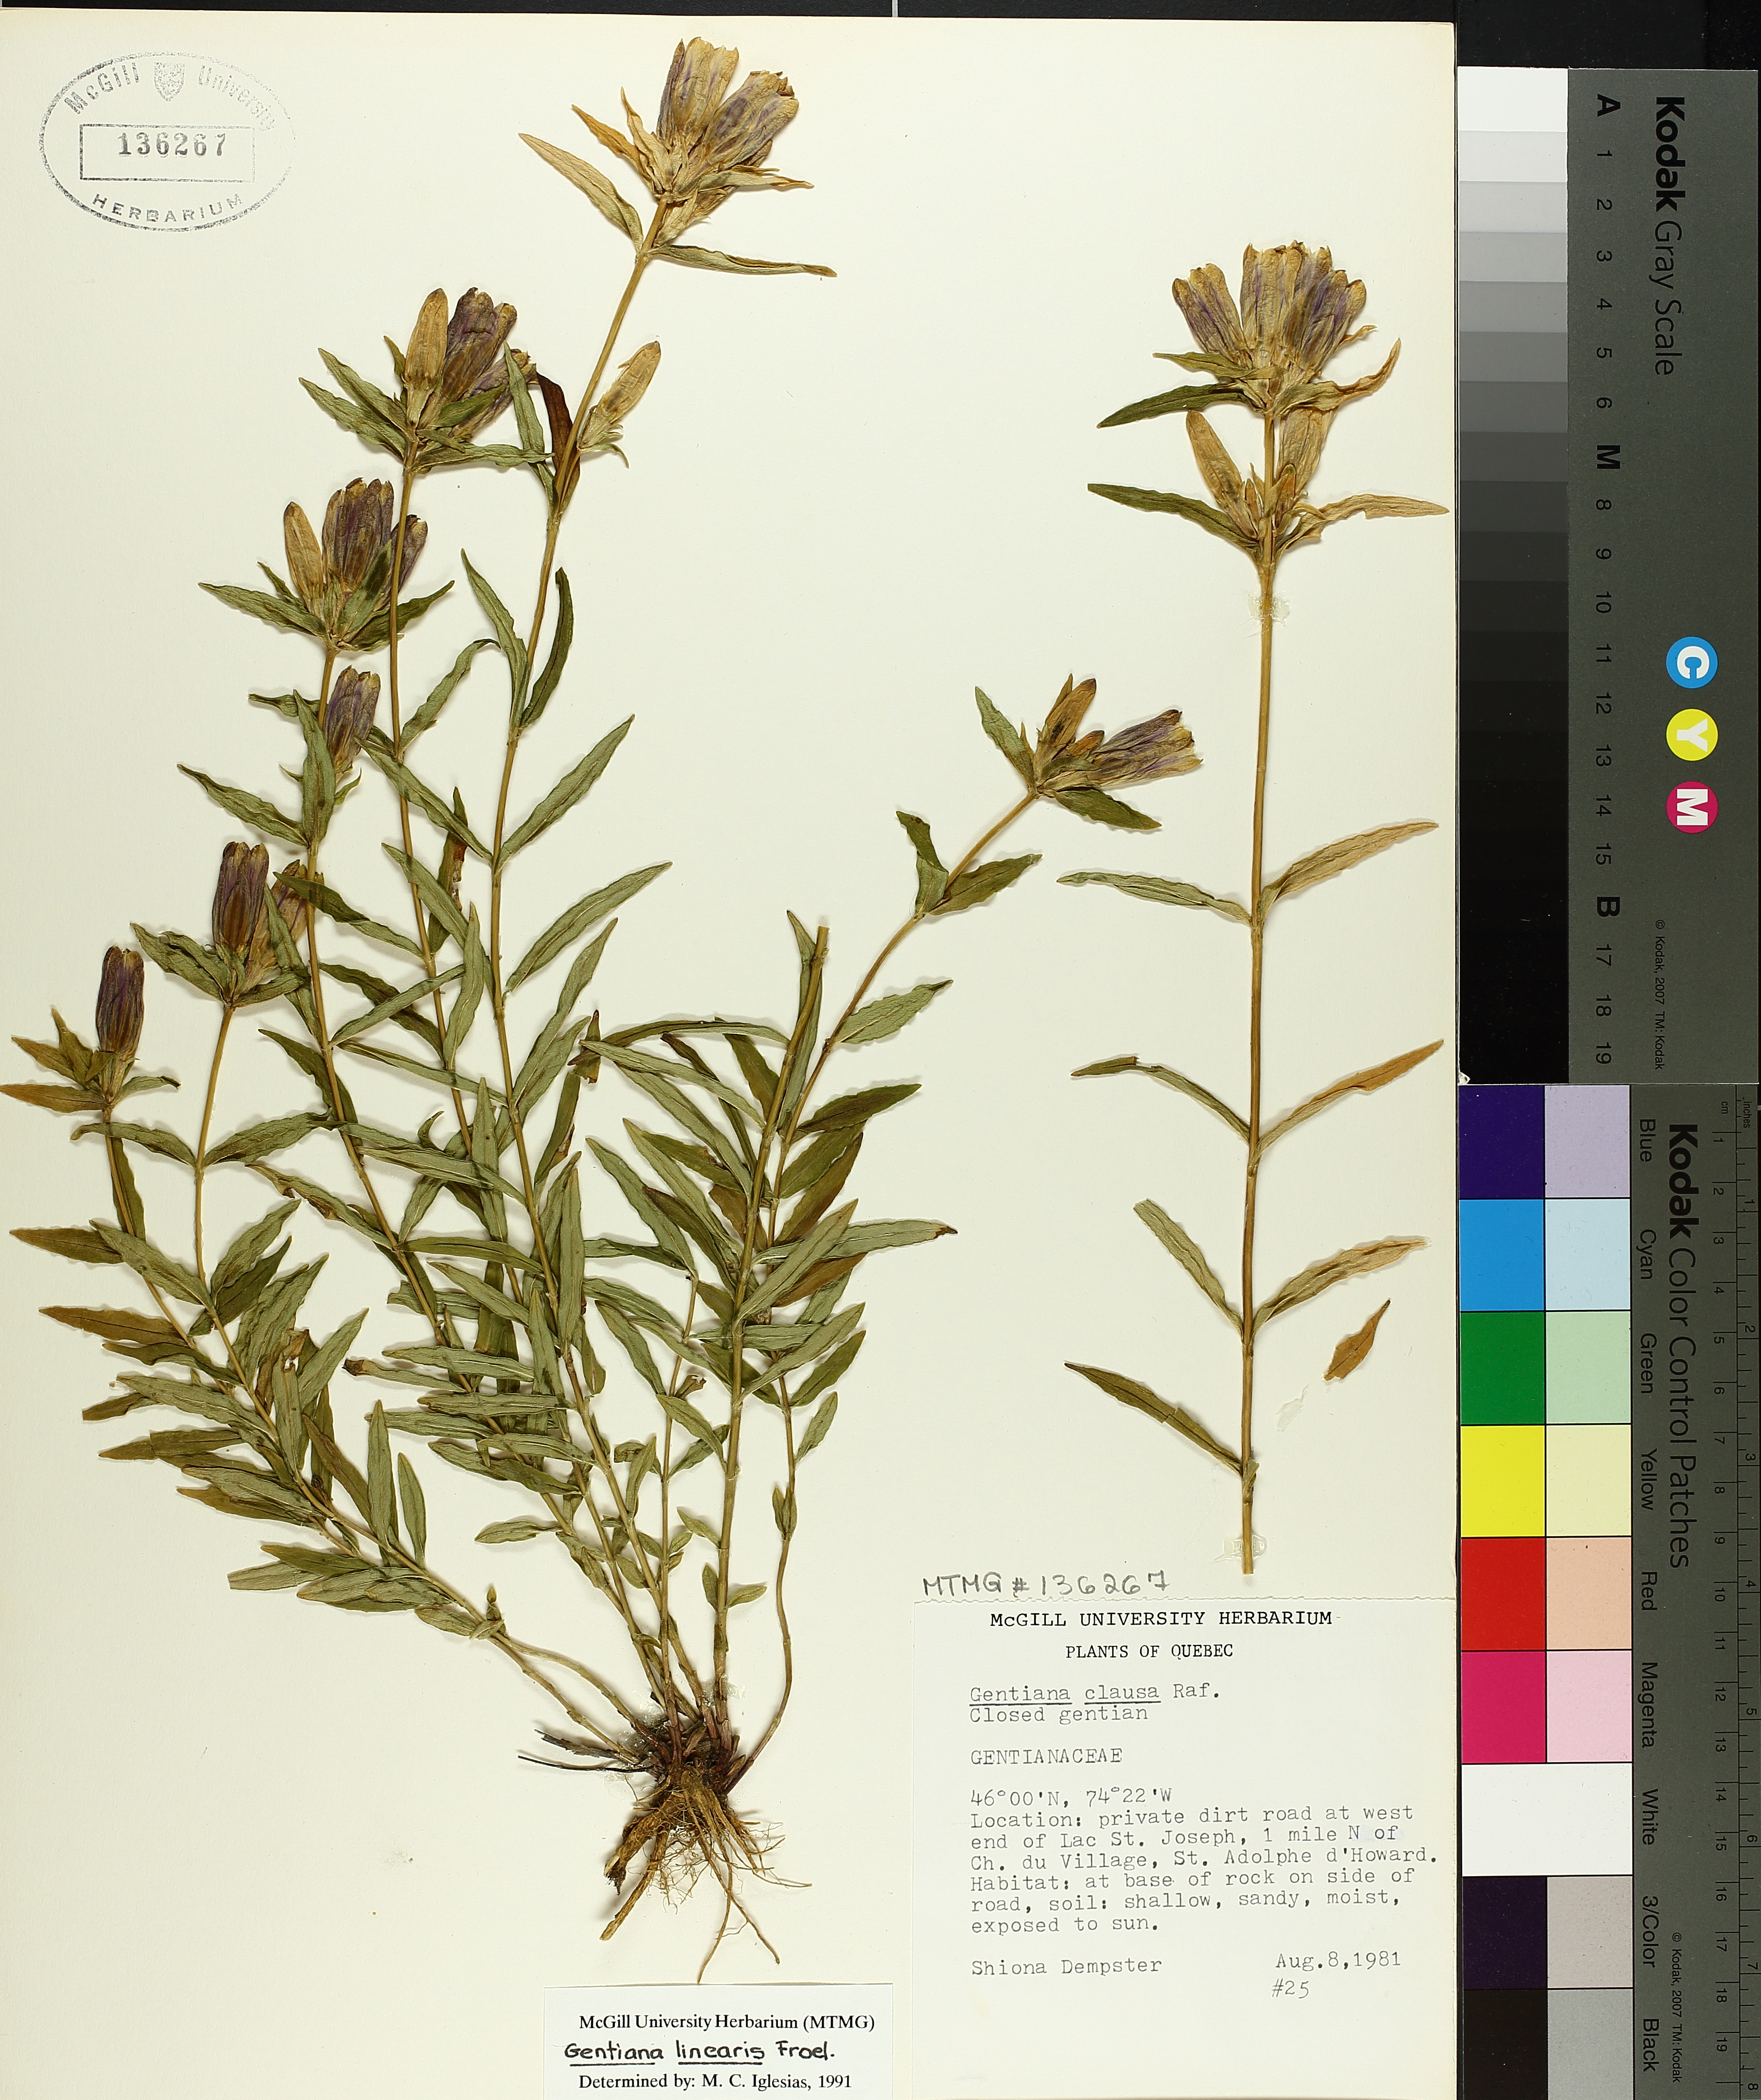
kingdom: Plantae
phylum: Tracheophyta
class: Magnoliopsida
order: Gentianales
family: Gentianaceae
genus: Gentiana
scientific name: Gentiana linearis
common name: Bastard gentian
